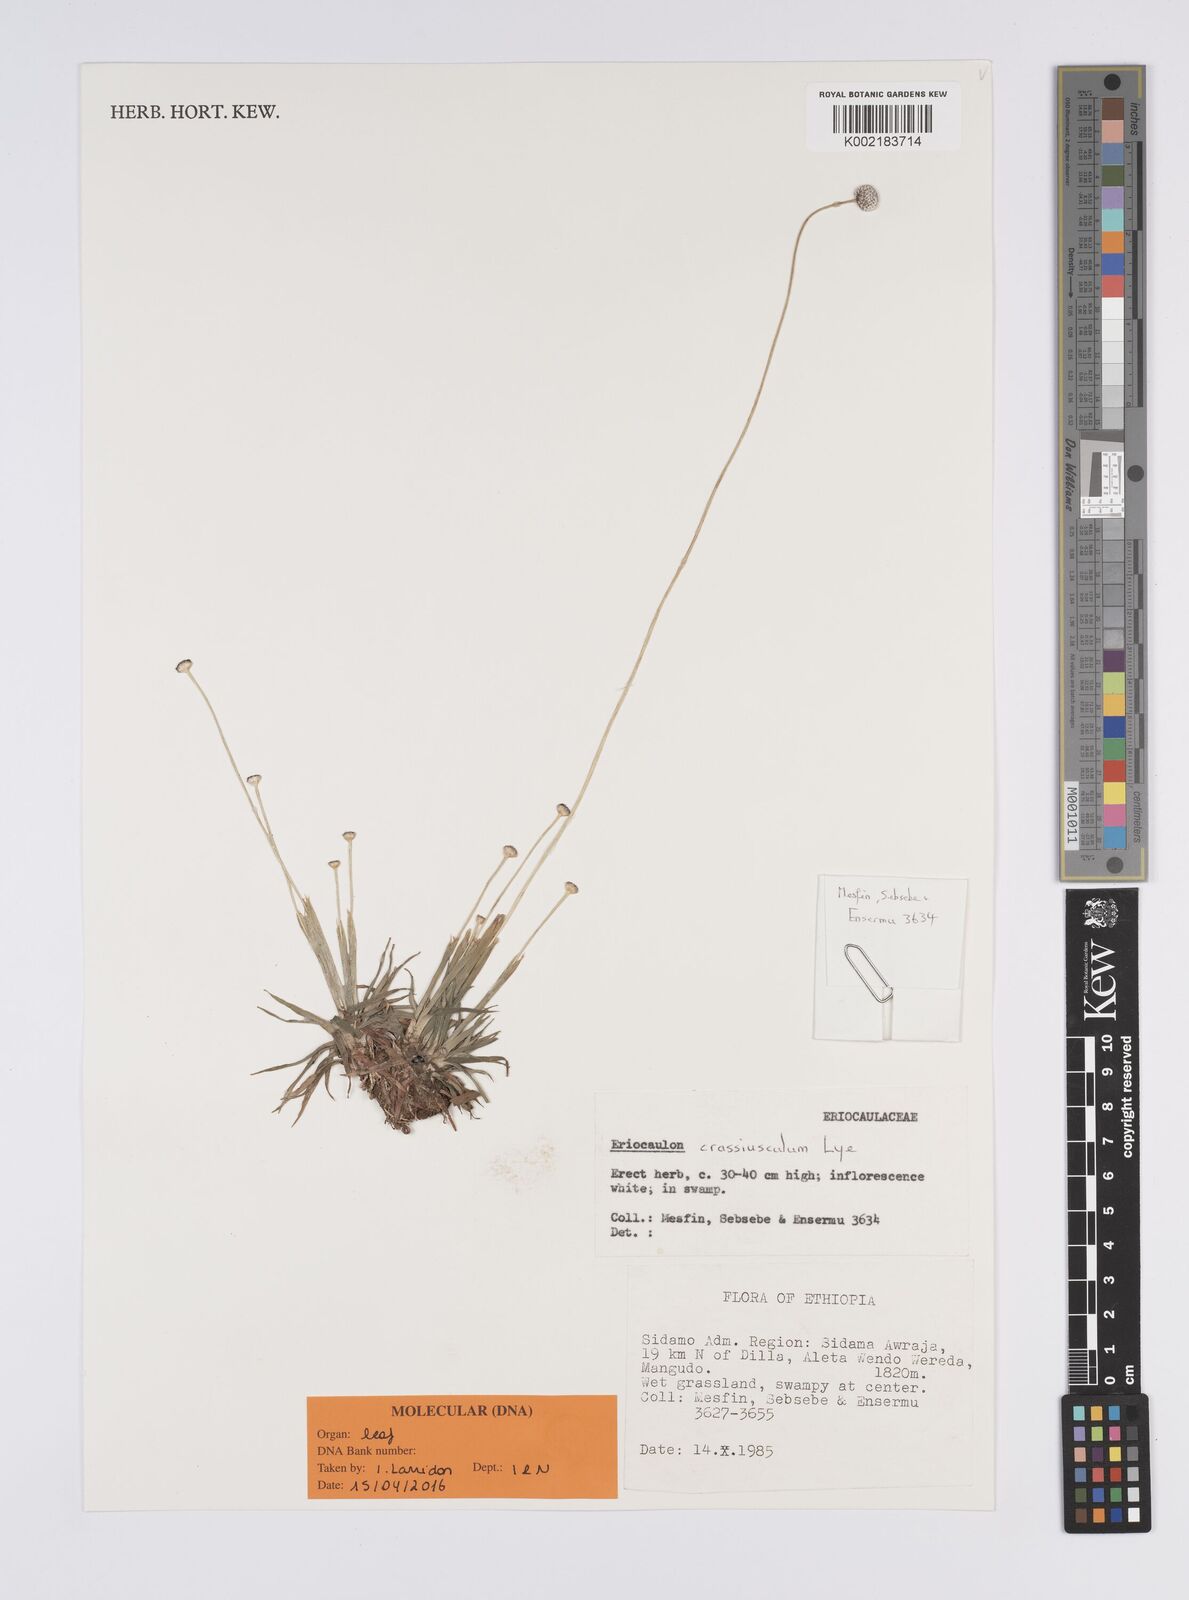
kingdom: Plantae
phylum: Tracheophyta
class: Liliopsida
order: Poales
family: Eriocaulaceae
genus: Eriocaulon
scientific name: Eriocaulon crassiusculum
